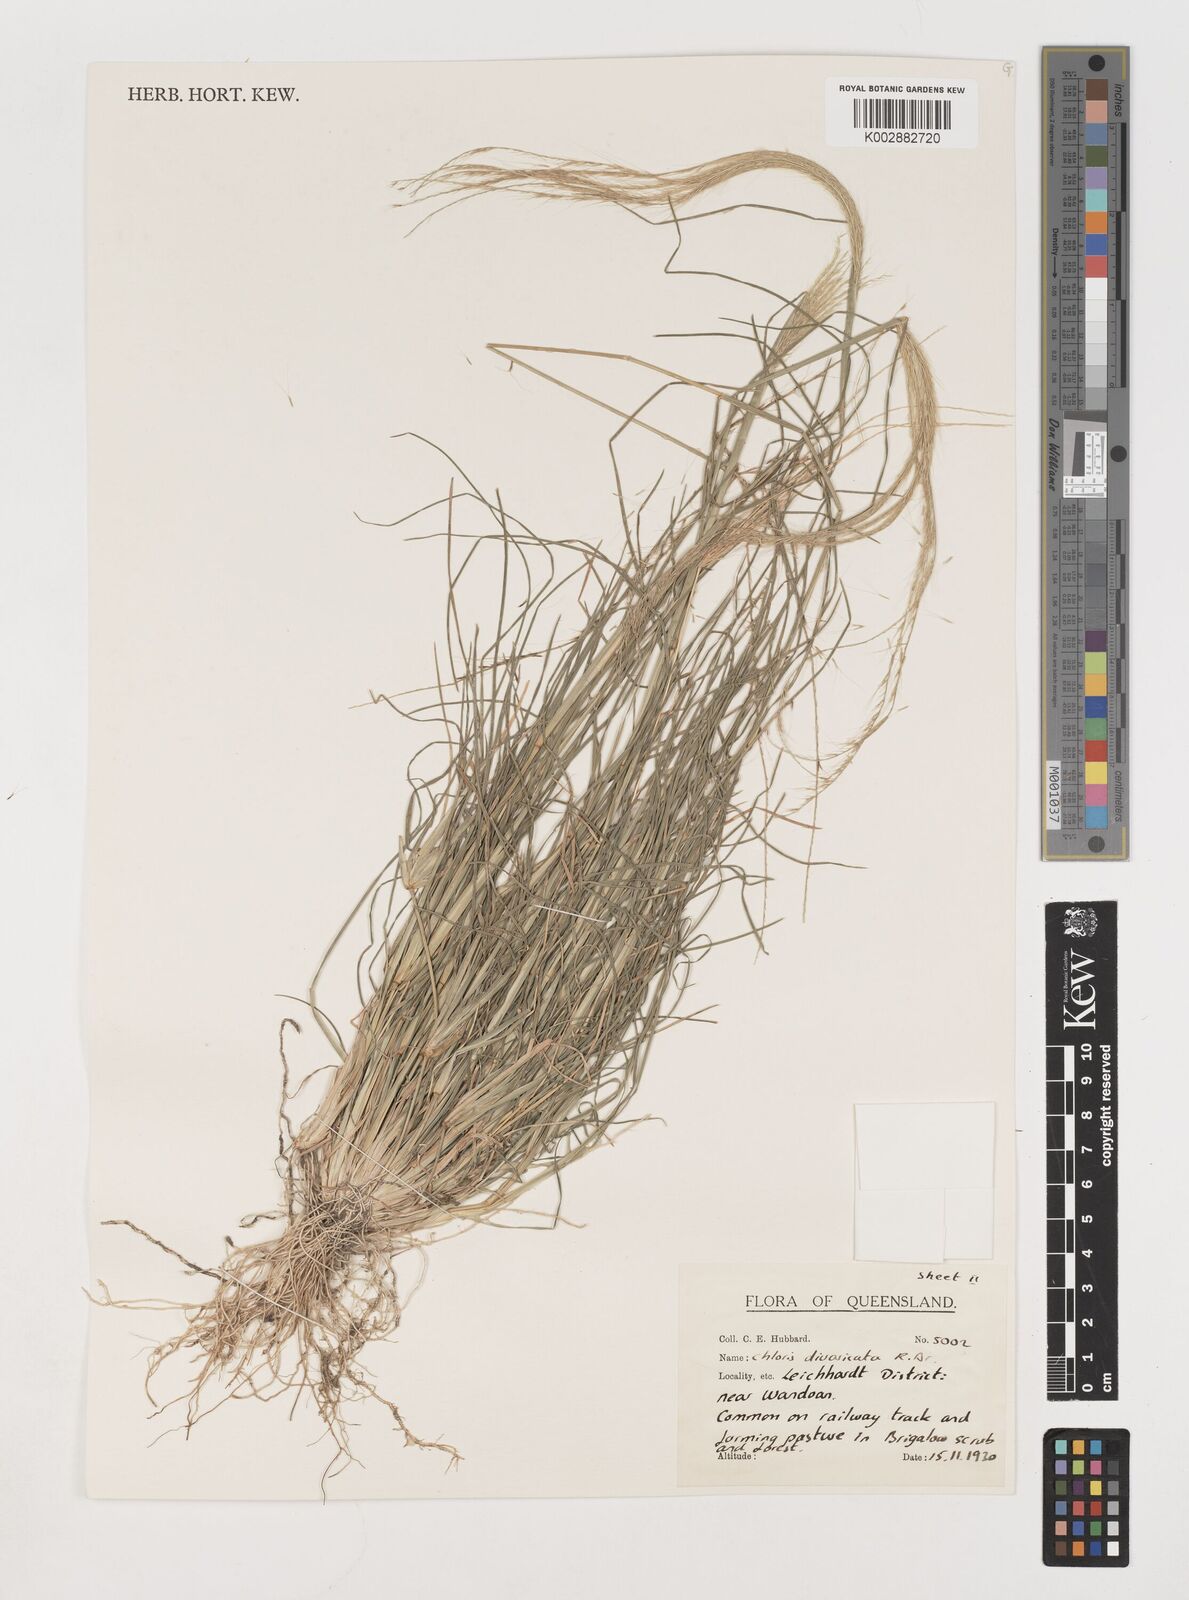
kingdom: Plantae
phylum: Tracheophyta
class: Liliopsida
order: Poales
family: Poaceae
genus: Chloris
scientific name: Chloris divaricata
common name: Spreading windmill grass
